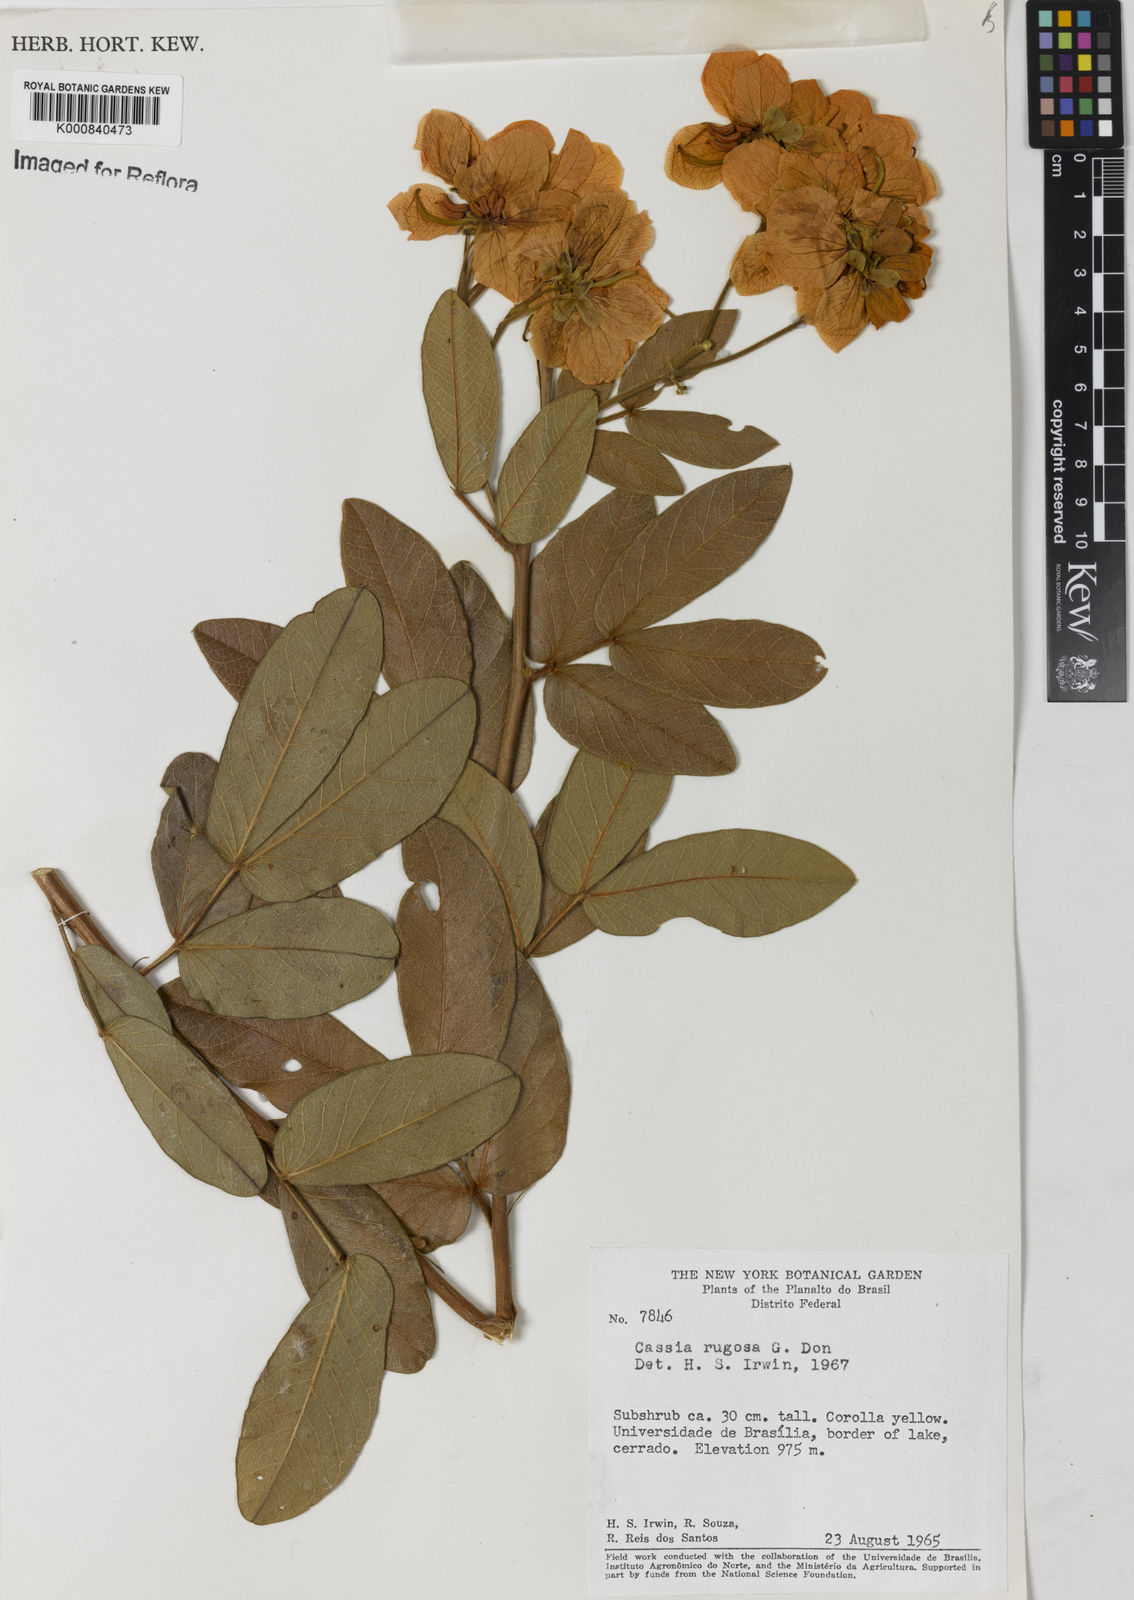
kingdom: Plantae
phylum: Tracheophyta
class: Magnoliopsida
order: Fabales
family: Fabaceae
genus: Senna
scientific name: Senna rugosa
